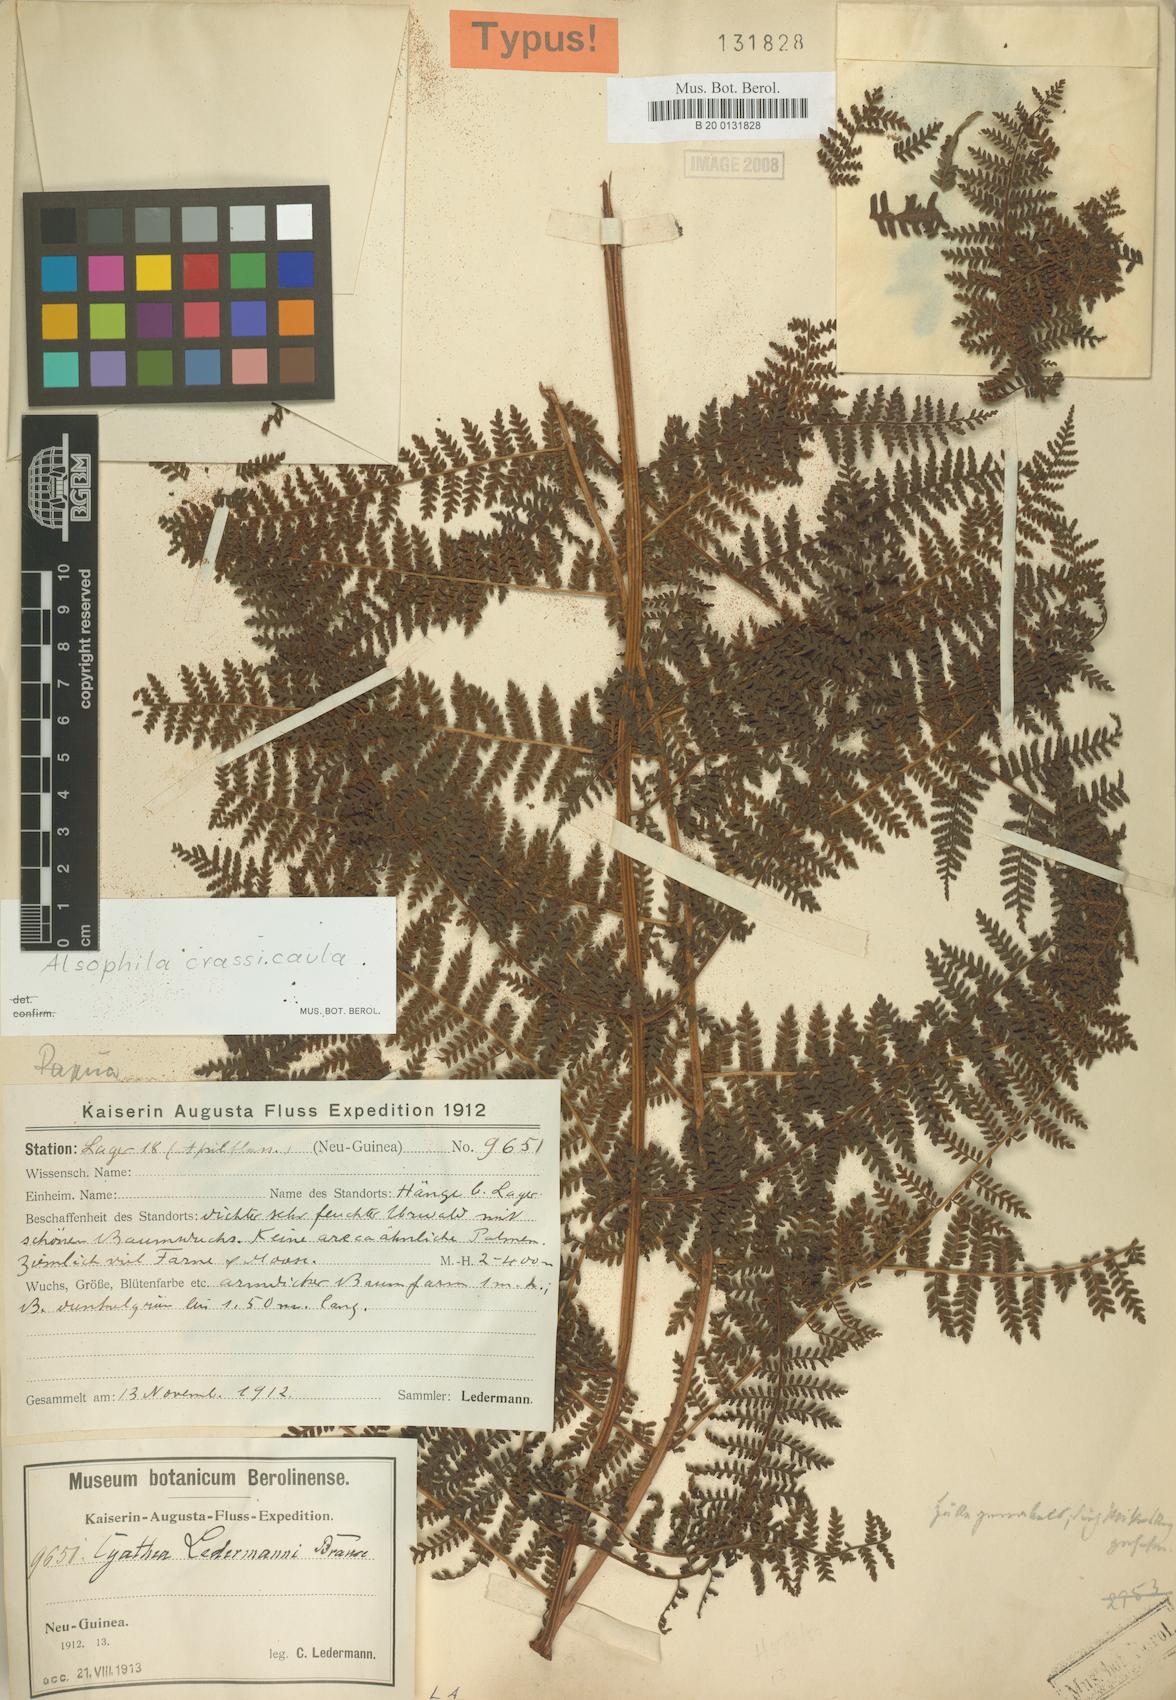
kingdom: Plantae
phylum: Tracheophyta
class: Polypodiopsida
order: Cyatheales
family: Cyatheaceae
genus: Sphaeropteris
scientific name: Sphaeropteris ledermannii
